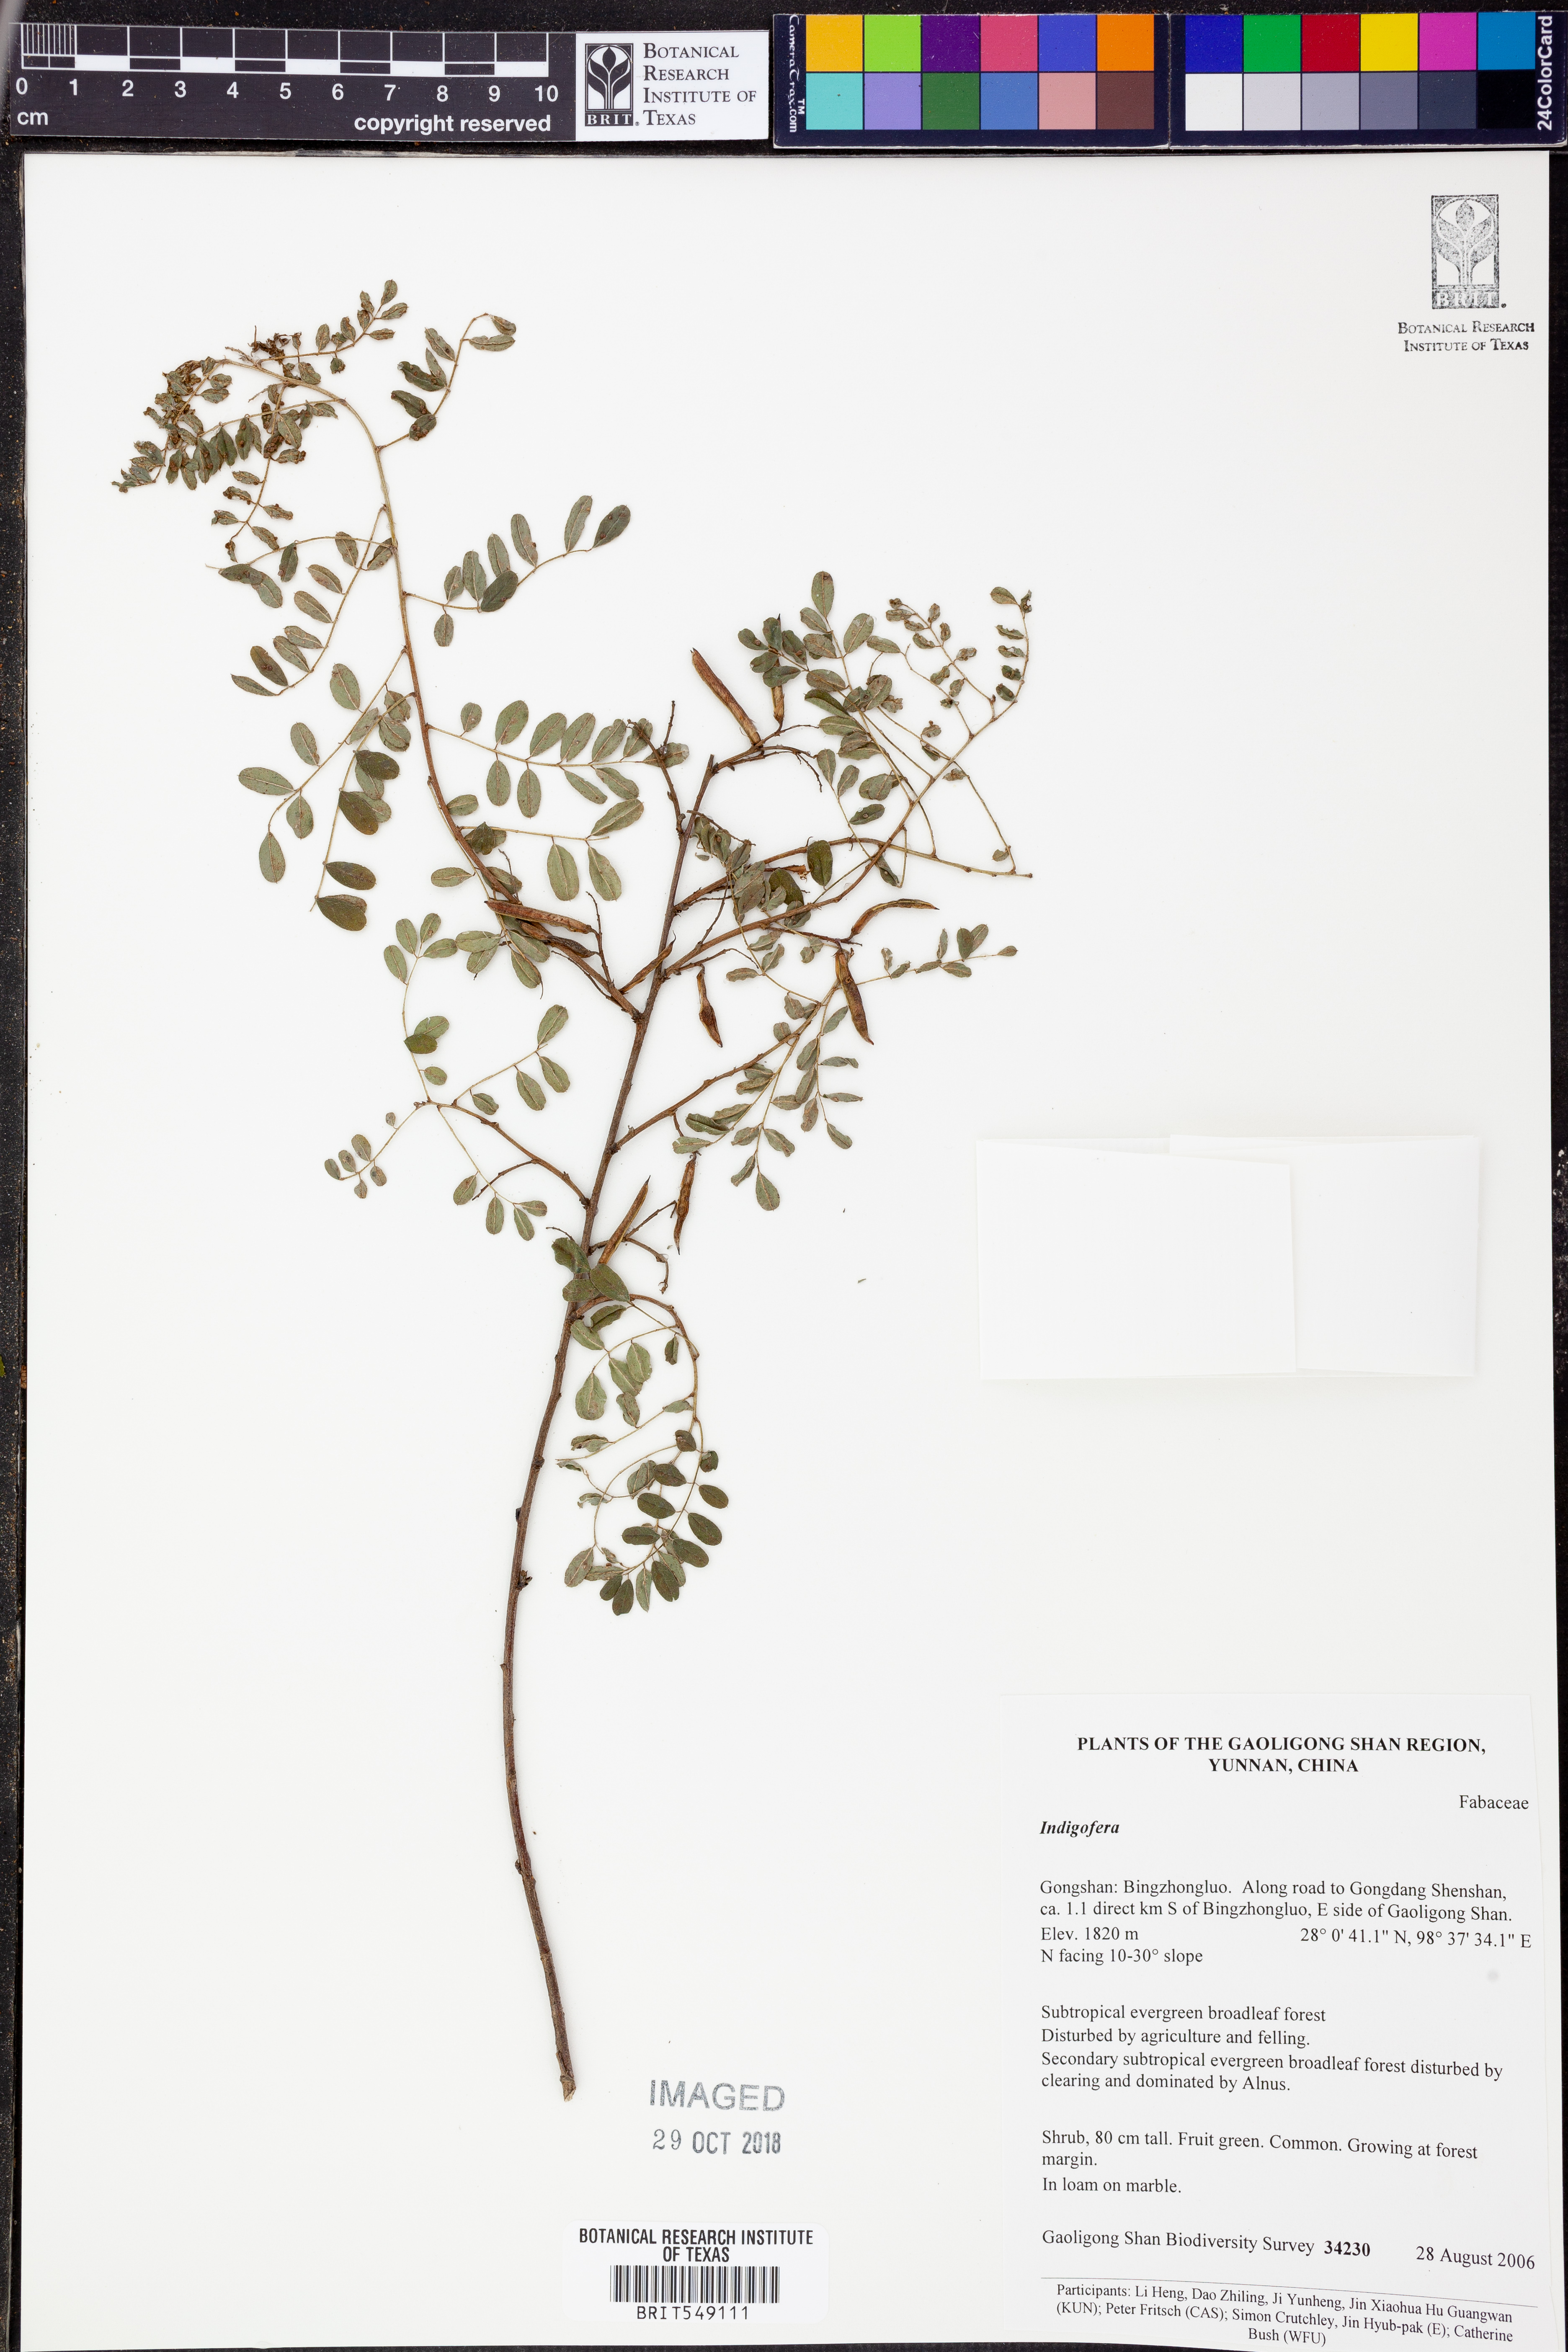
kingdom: Plantae
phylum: Tracheophyta
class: Magnoliopsida
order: Fabales
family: Fabaceae
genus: Indigofera
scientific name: Indigofera
